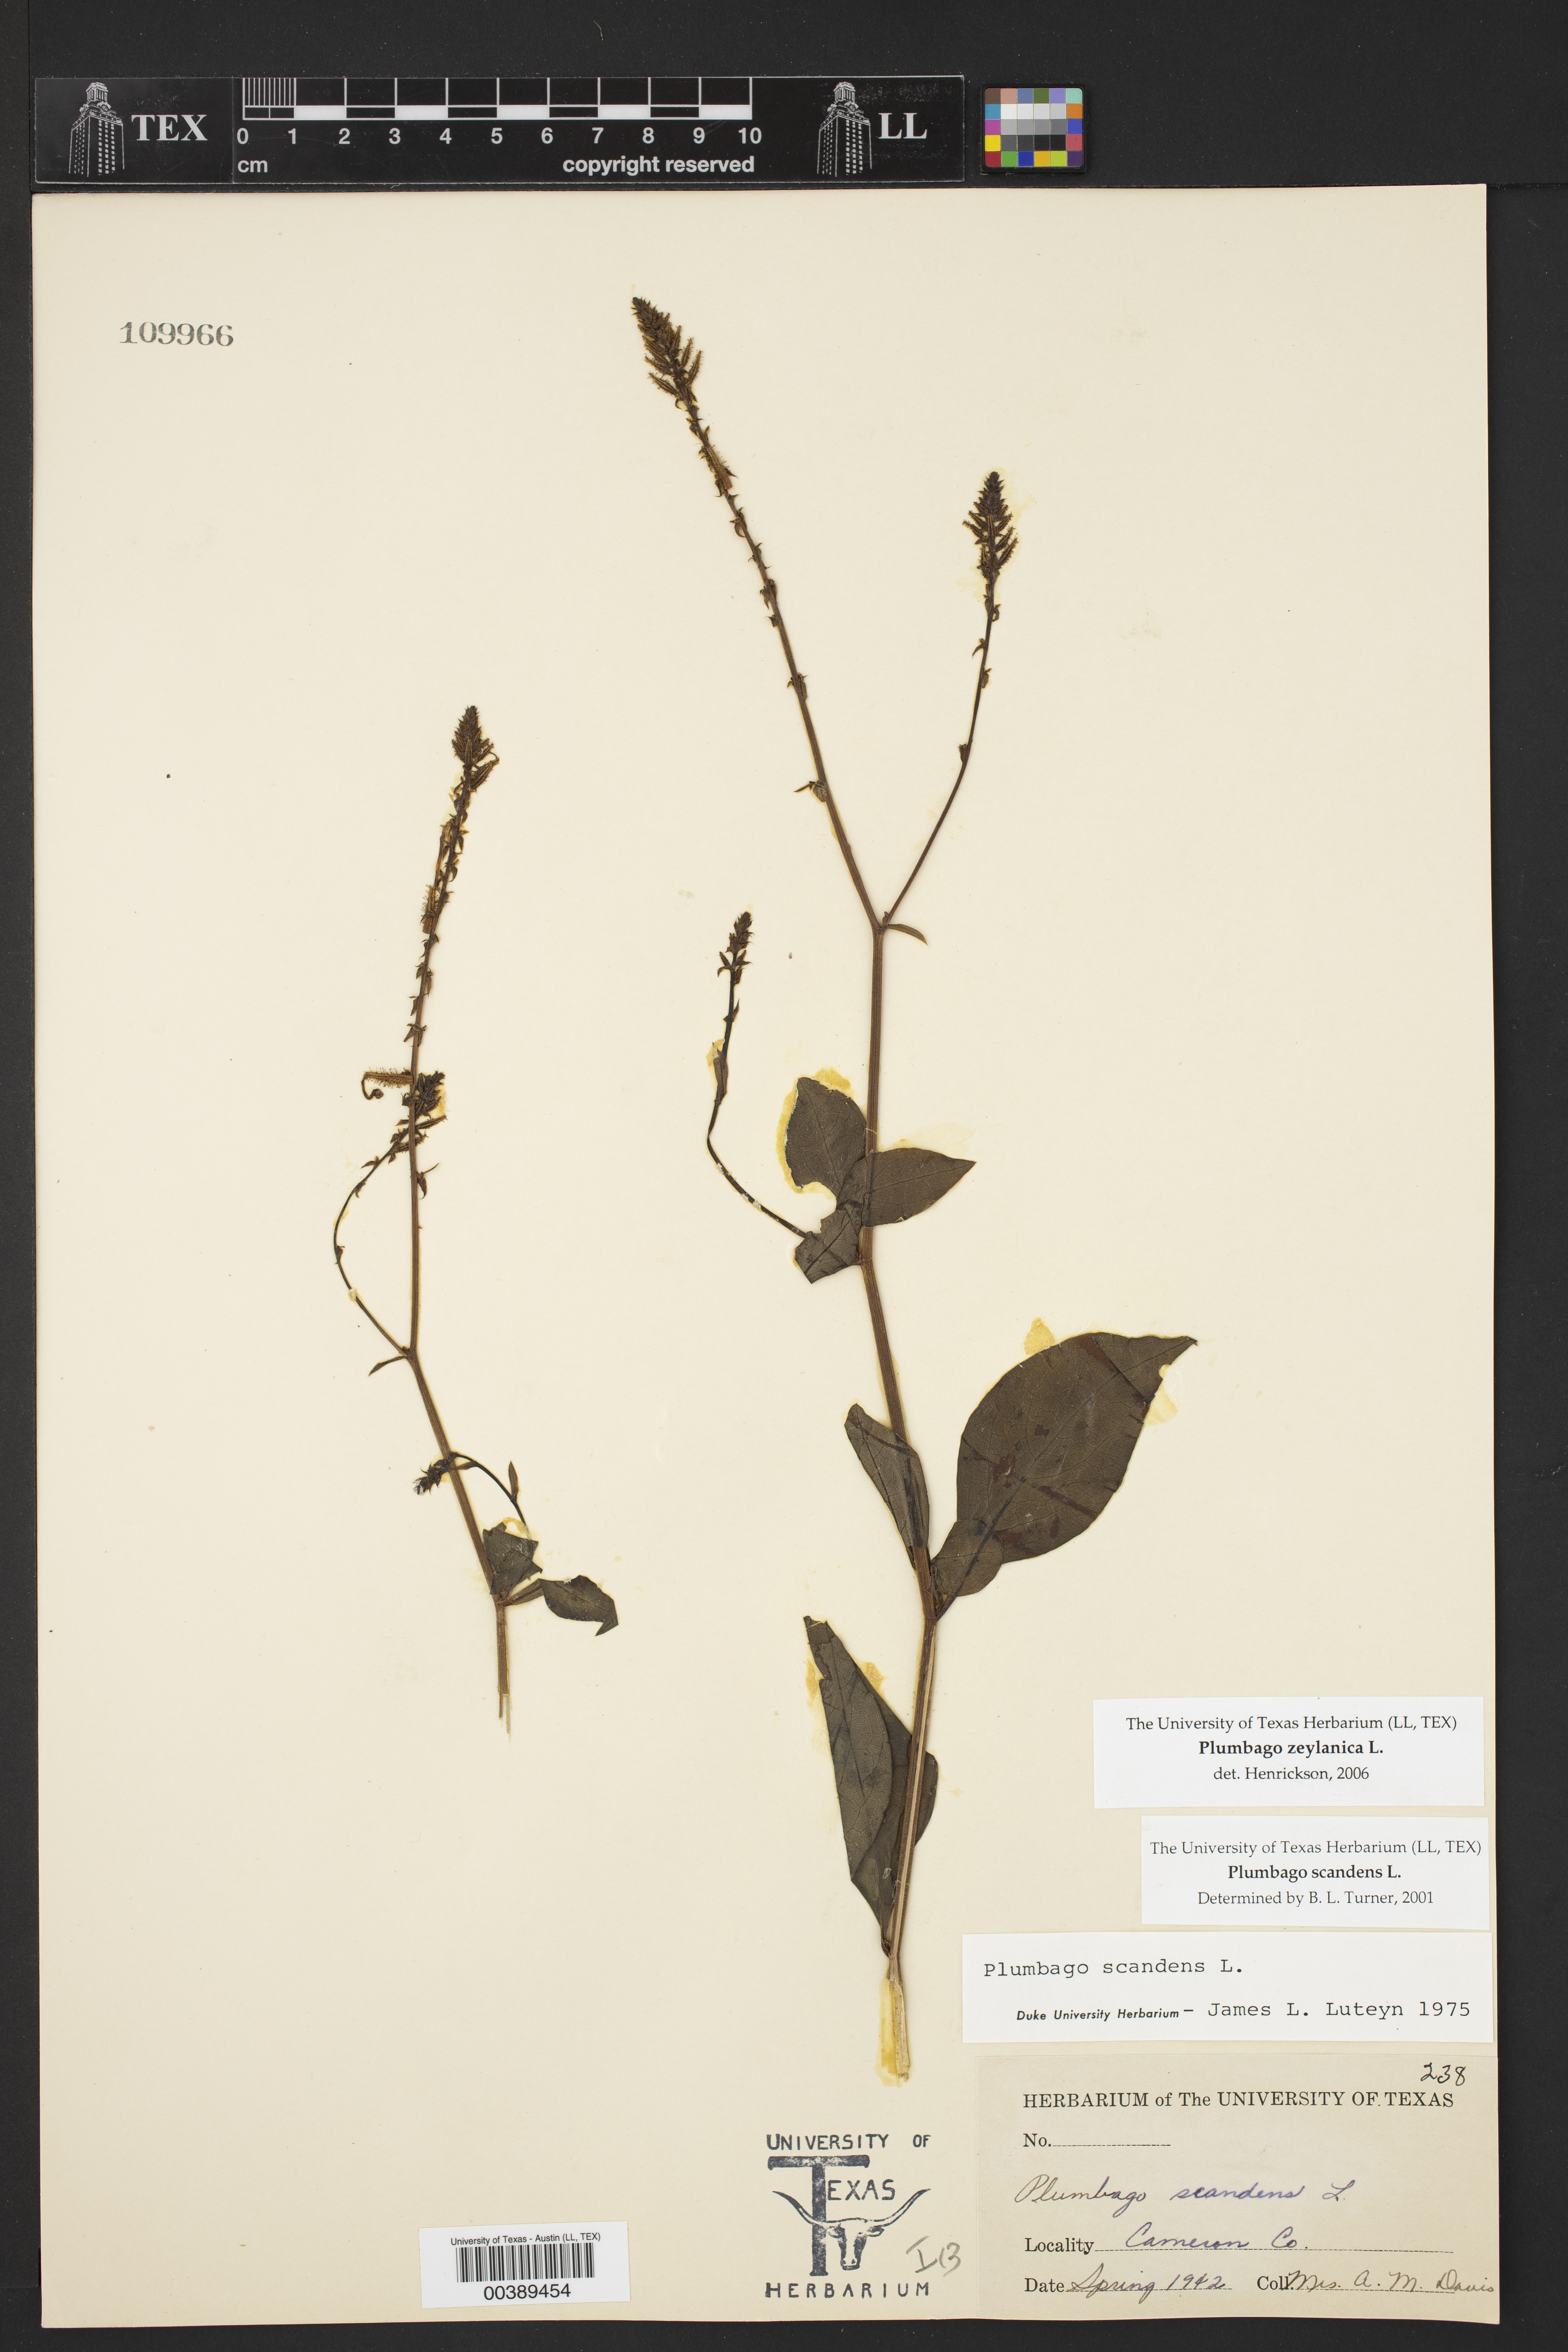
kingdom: Plantae
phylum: Tracheophyta
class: Magnoliopsida
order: Caryophyllales
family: Plumbaginaceae
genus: Plumbago
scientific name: Plumbago zeylanica
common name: Doctorbush
